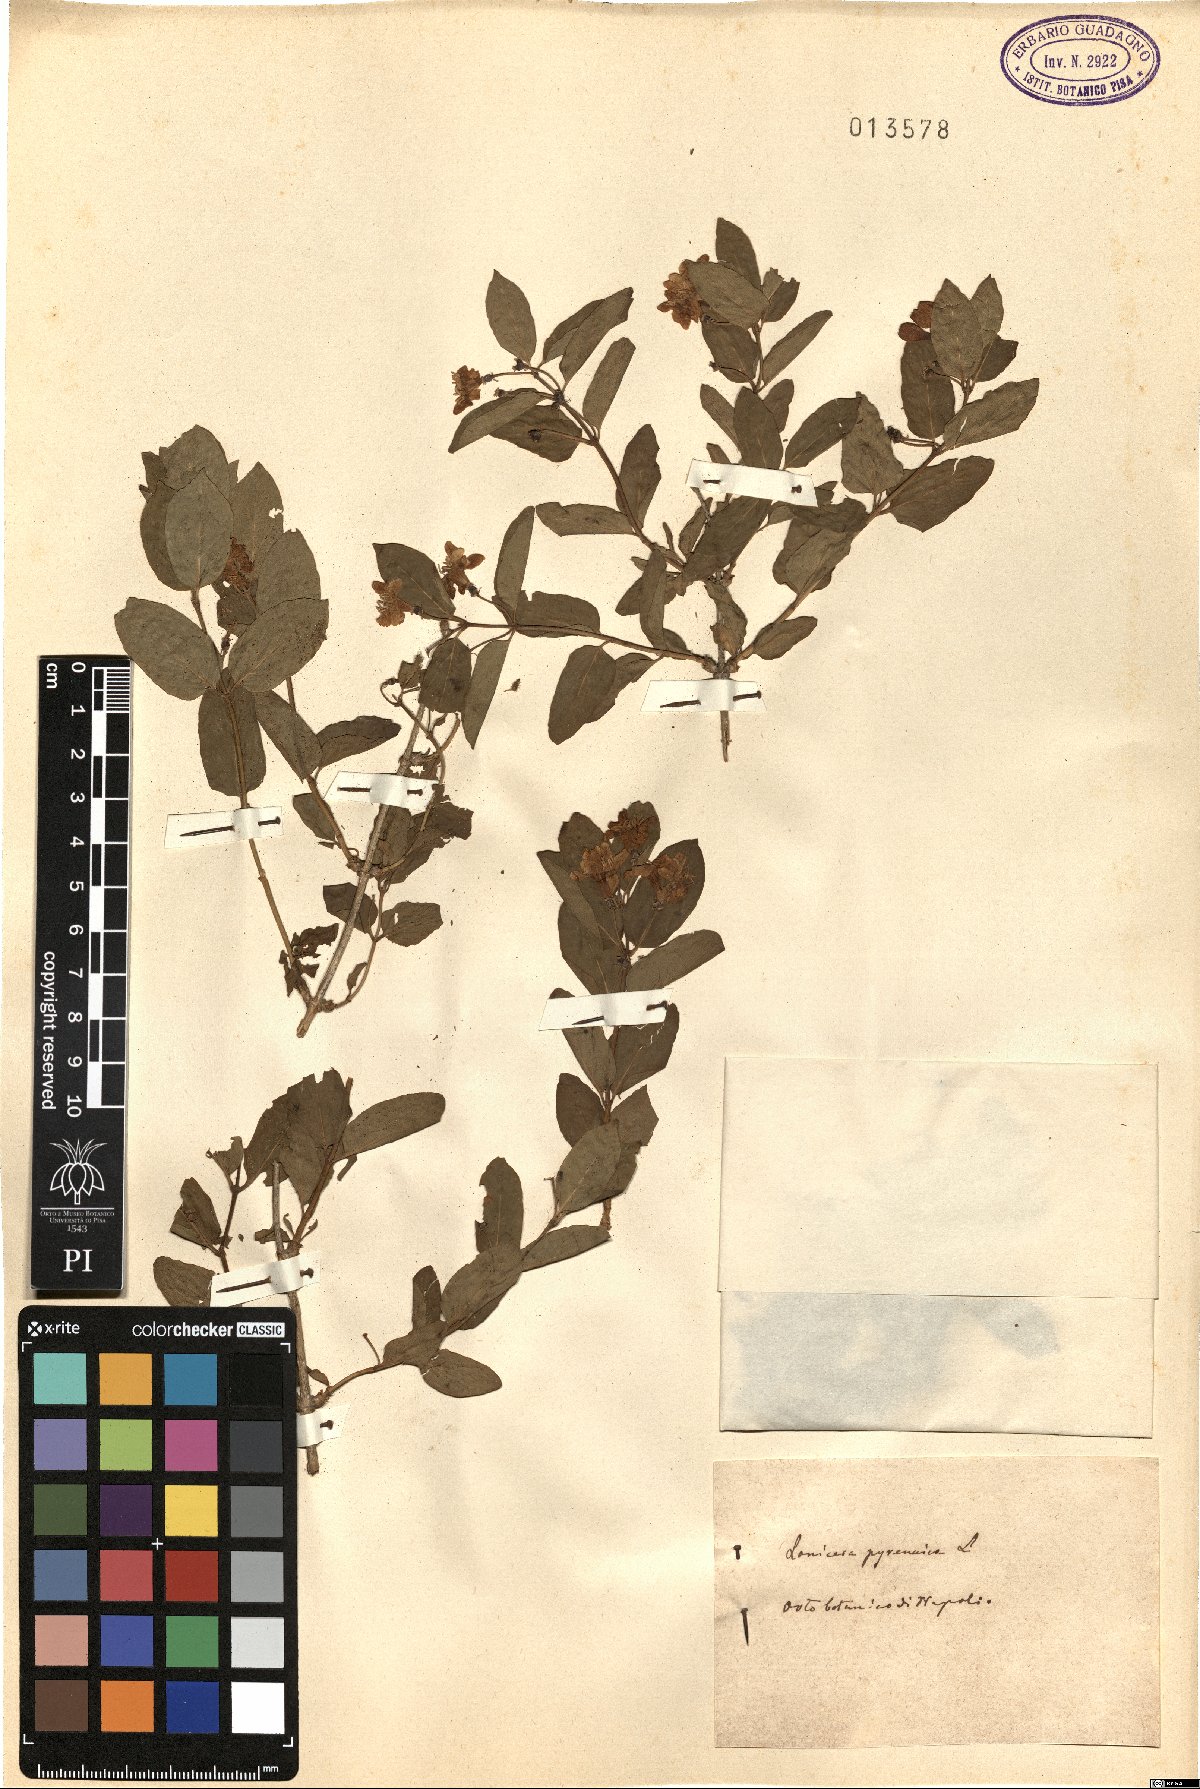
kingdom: Plantae
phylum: Tracheophyta
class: Magnoliopsida
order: Dipsacales
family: Caprifoliaceae
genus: Lonicera
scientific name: Lonicera pyrenaica
